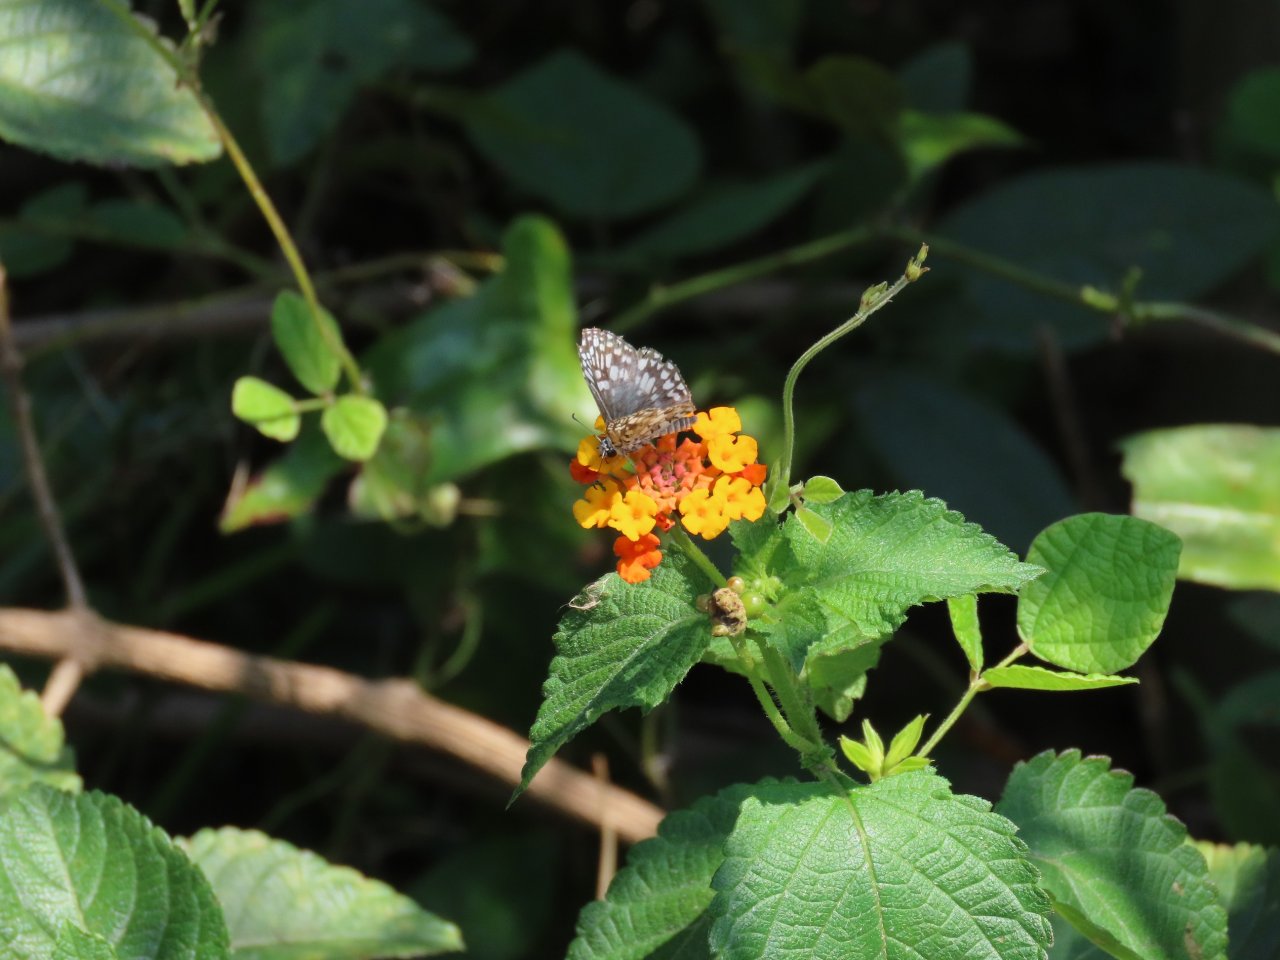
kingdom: Animalia
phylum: Arthropoda
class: Insecta
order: Lepidoptera
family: Hesperiidae
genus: Pyrgus
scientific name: Pyrgus oileus
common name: Tropical Checkered-Skipper
